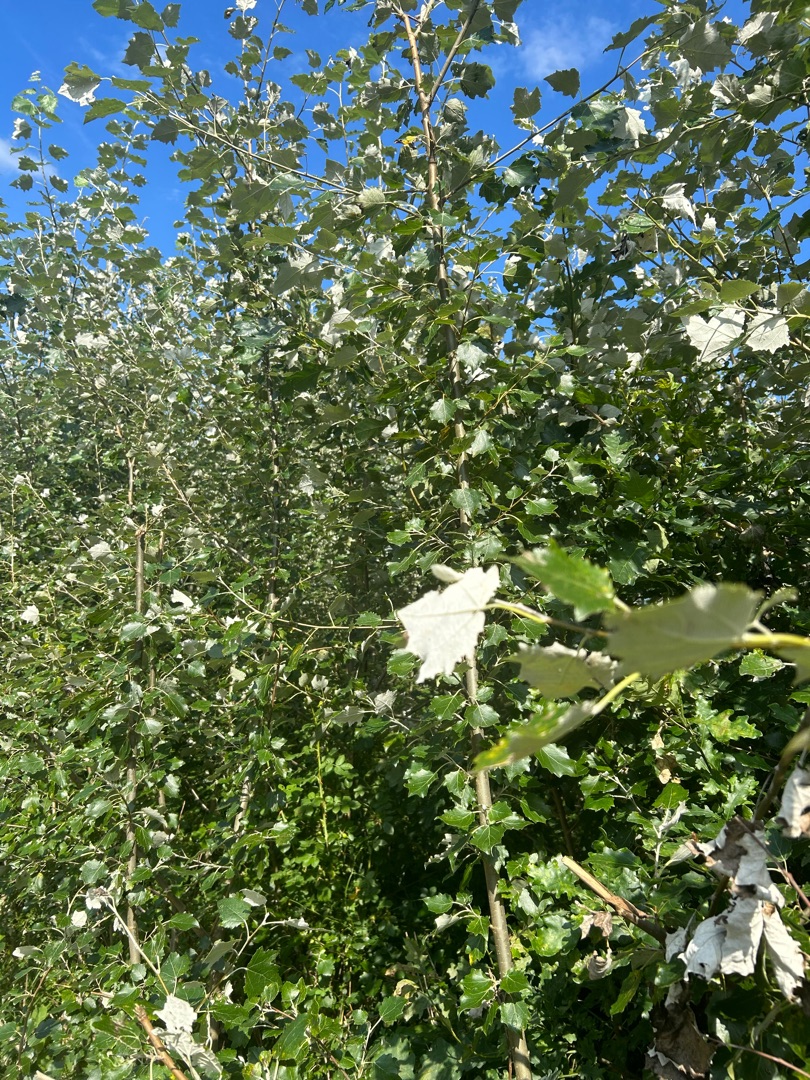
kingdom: Plantae
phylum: Tracheophyta
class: Magnoliopsida
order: Malpighiales
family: Salicaceae
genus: Populus
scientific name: Populus alba
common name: Sølv-poppel
